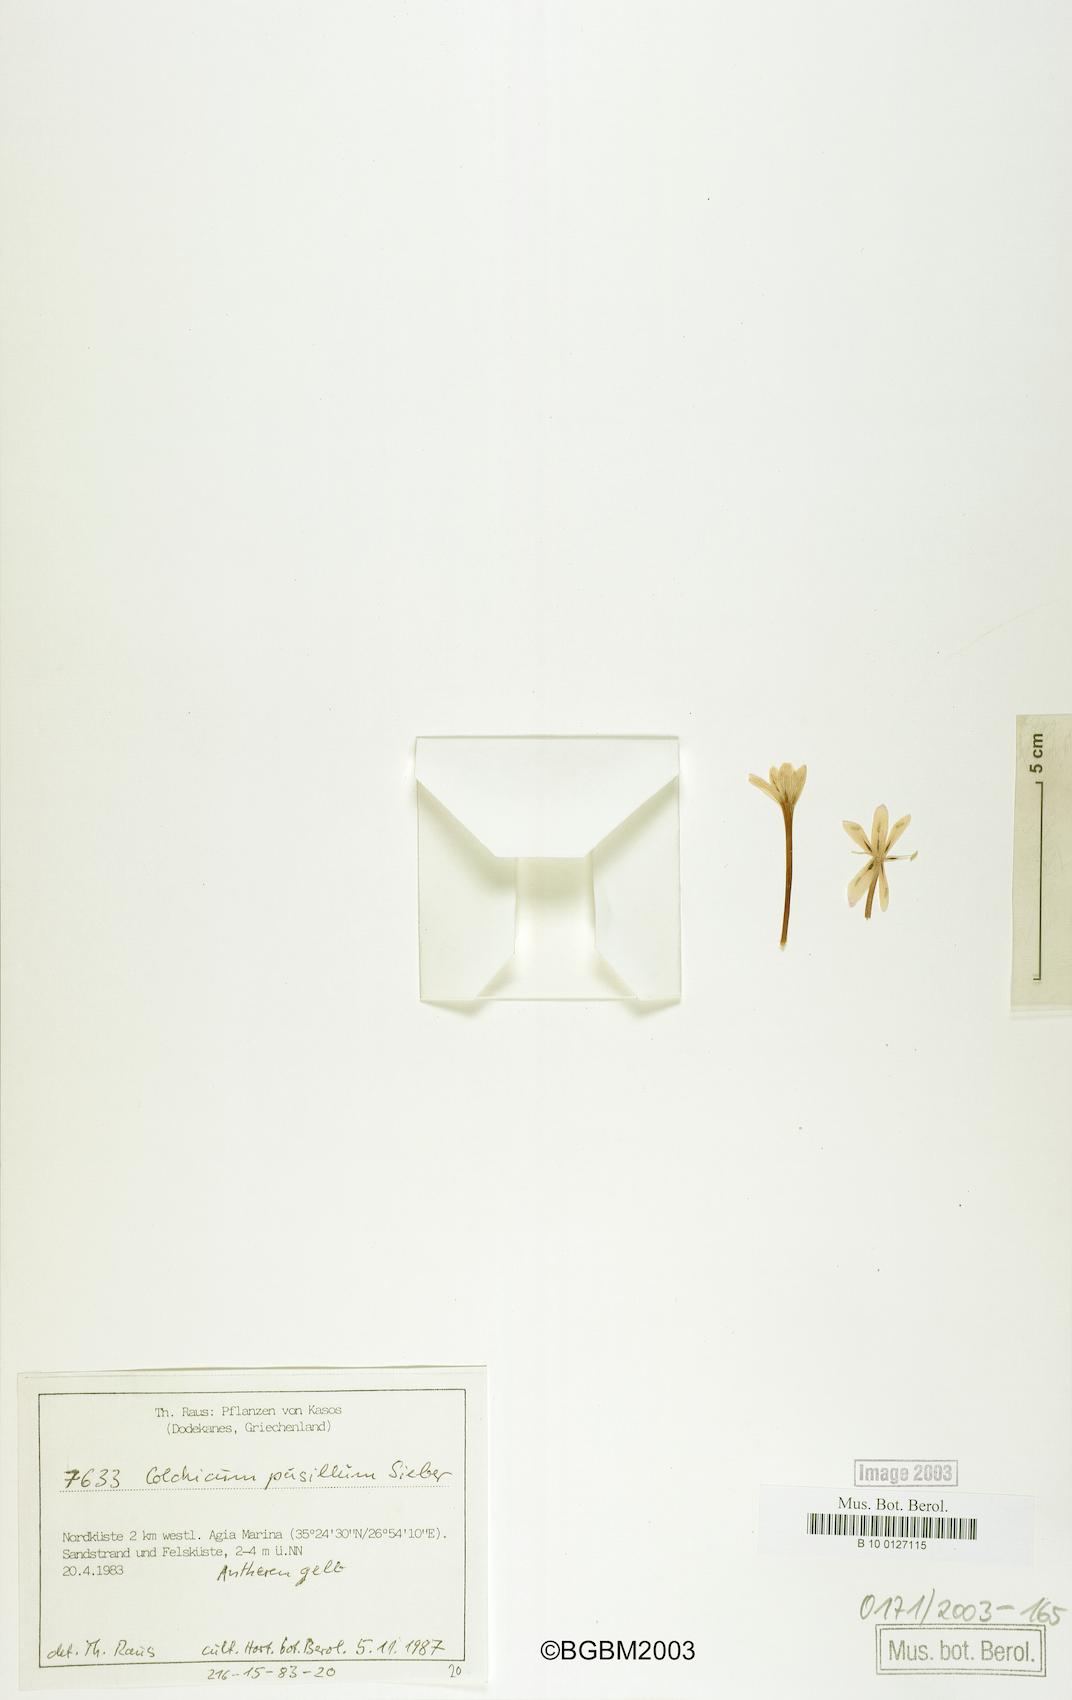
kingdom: Plantae
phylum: Tracheophyta
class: Liliopsida
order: Liliales
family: Colchicaceae
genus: Colchicum
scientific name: Colchicum pusillum
